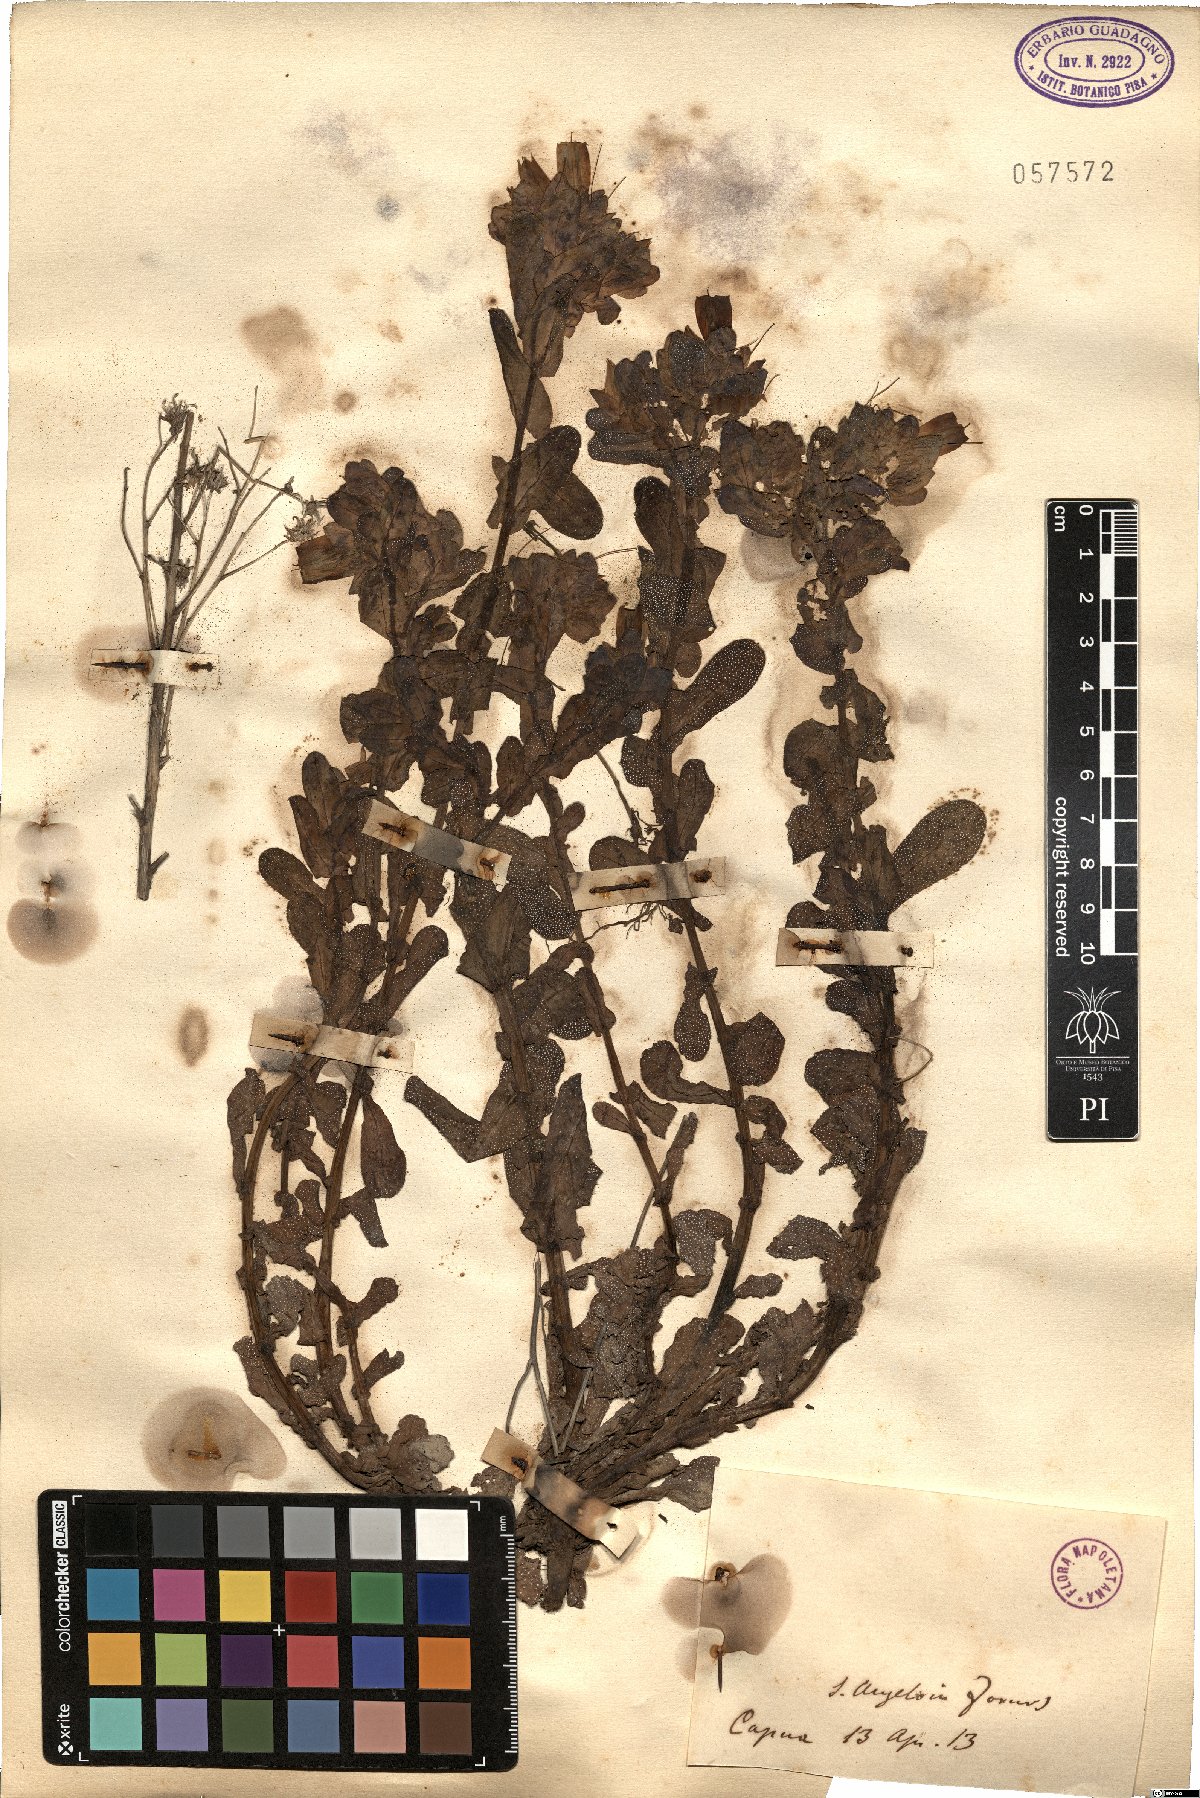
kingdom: Plantae
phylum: Tracheophyta
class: Magnoliopsida
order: Boraginales
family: Boraginaceae
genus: Cerinthe
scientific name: Cerinthe
